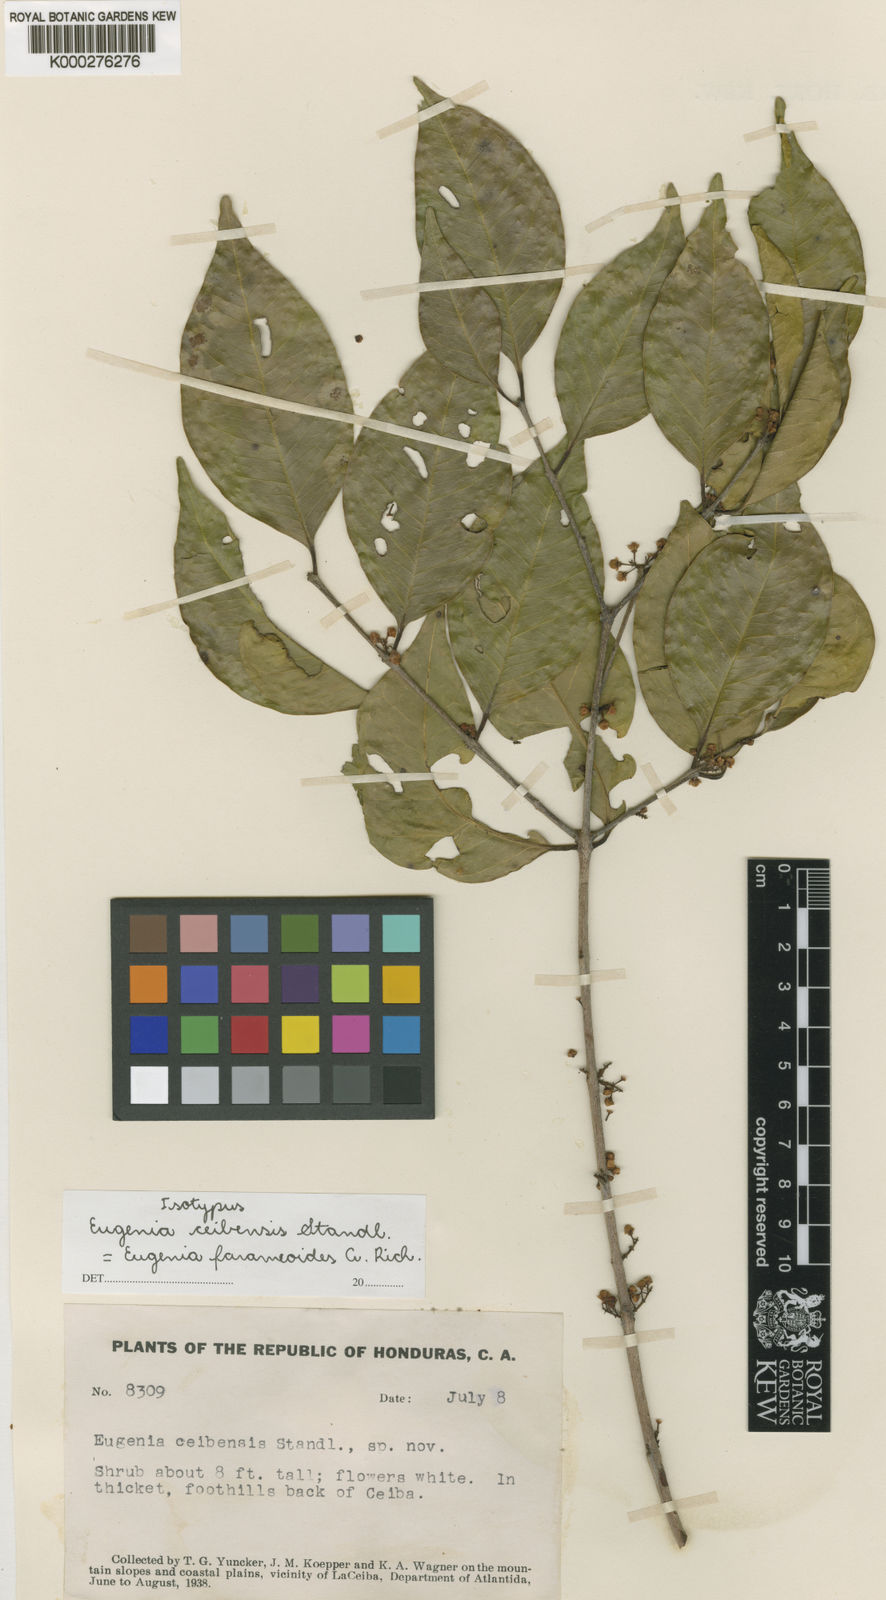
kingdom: Plantae
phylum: Tracheophyta
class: Magnoliopsida
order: Myrtales
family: Myrtaceae
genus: Eugenia
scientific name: Eugenia farameoides
